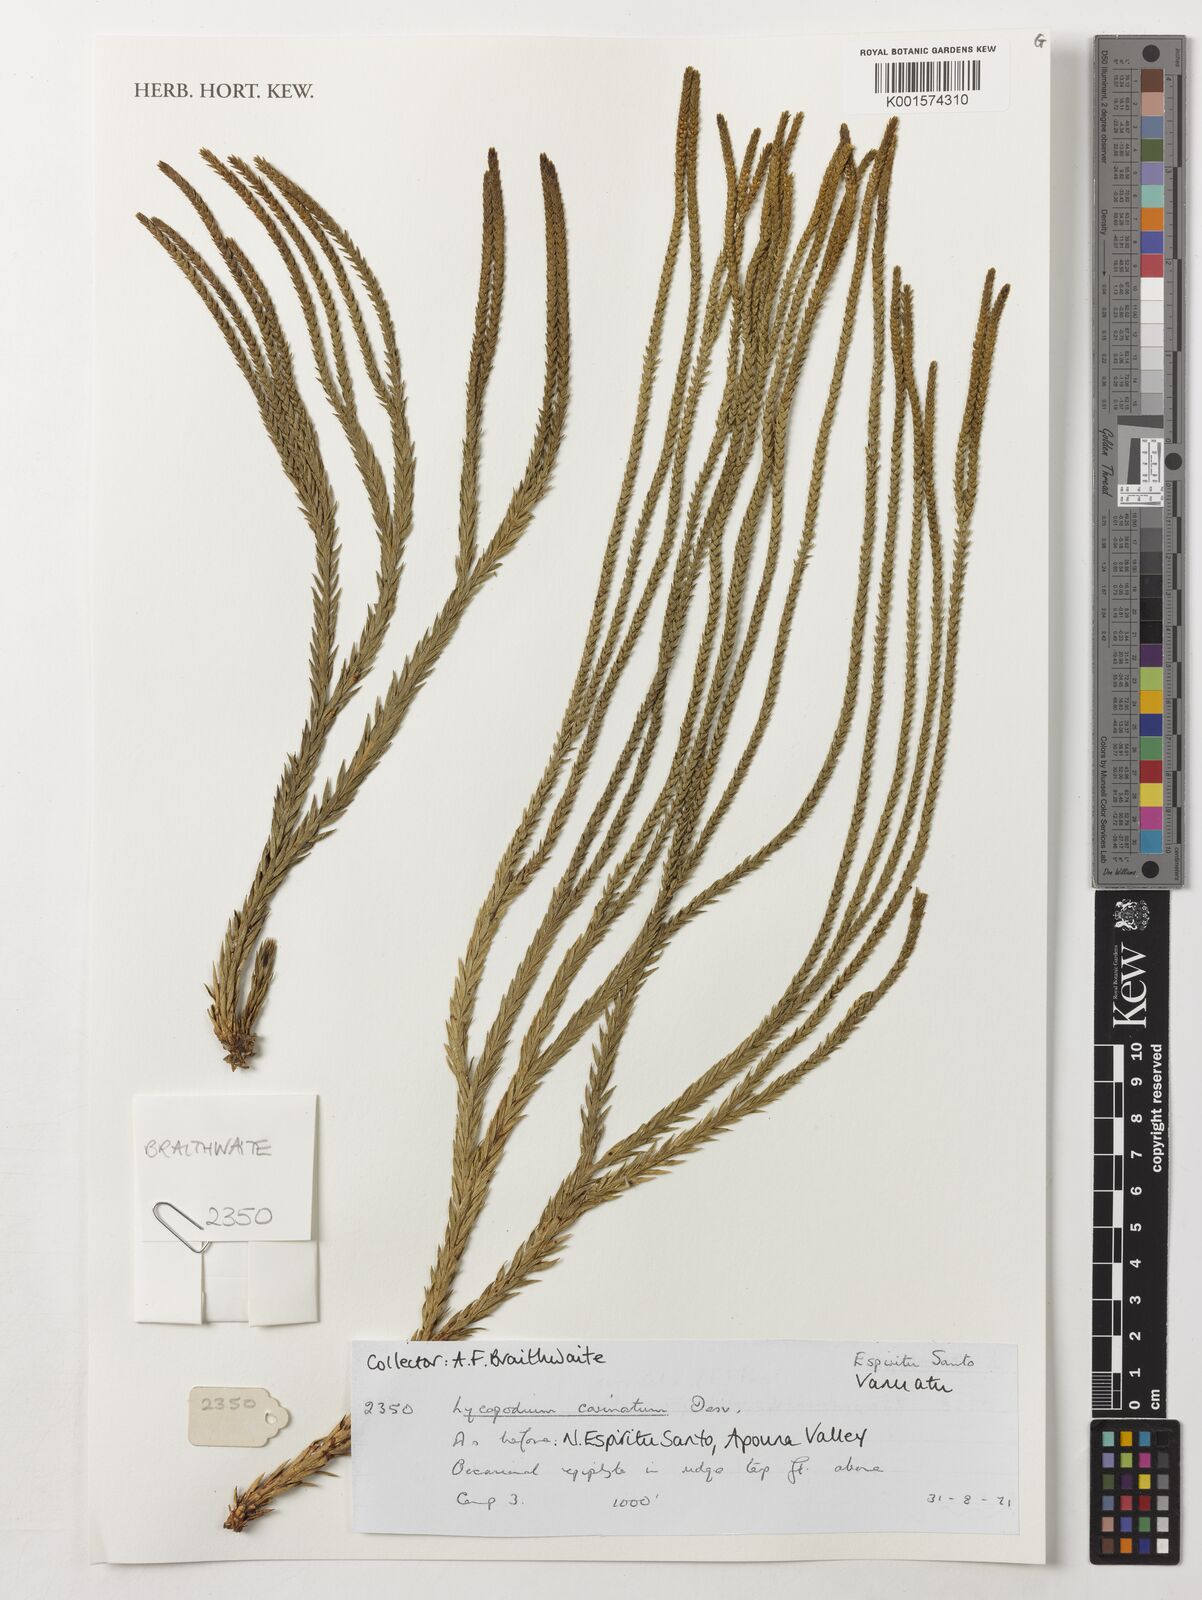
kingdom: Plantae
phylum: Tracheophyta
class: Lycopodiopsida
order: Lycopodiales
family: Lycopodiaceae
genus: Phlegmariurus
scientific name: Phlegmariurus carinatus
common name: Keeled tassel-fern
